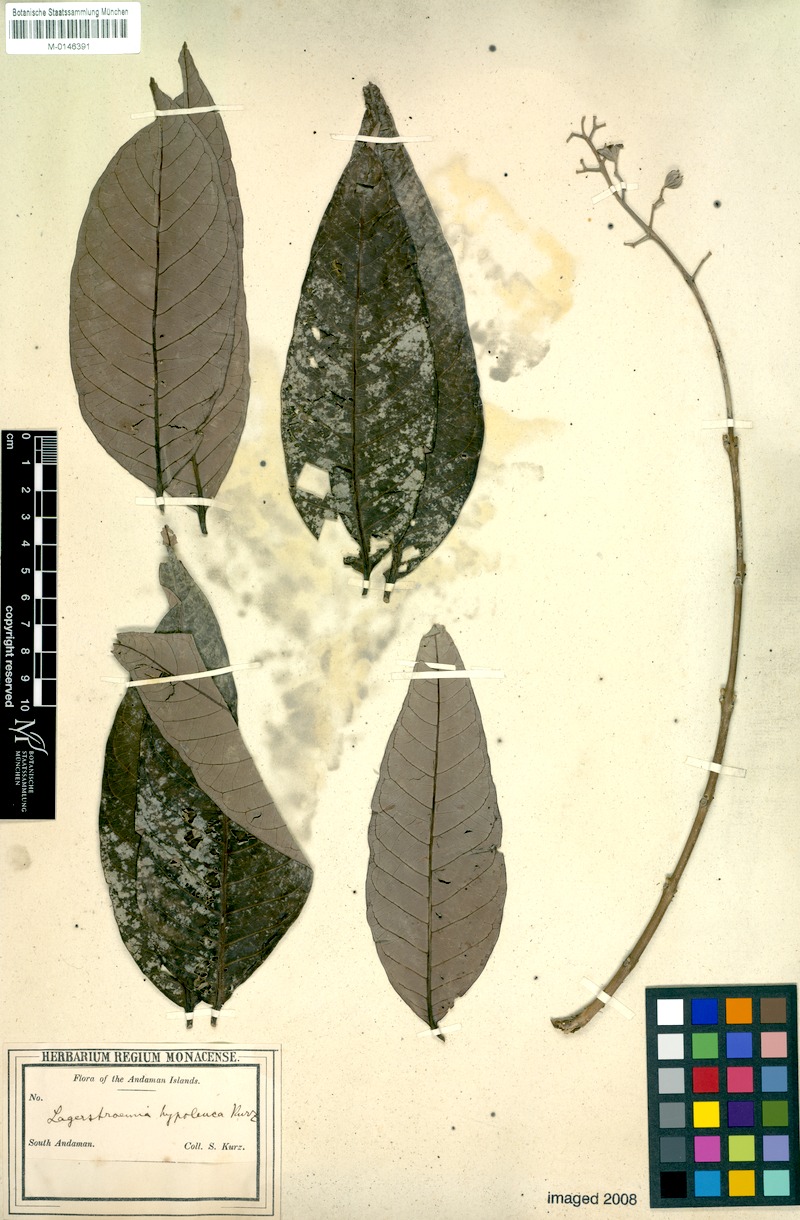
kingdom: Plantae
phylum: Tracheophyta
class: Magnoliopsida
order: Myrtales
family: Lythraceae
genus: Lagerstroemia
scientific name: Lagerstroemia hypoleuca
